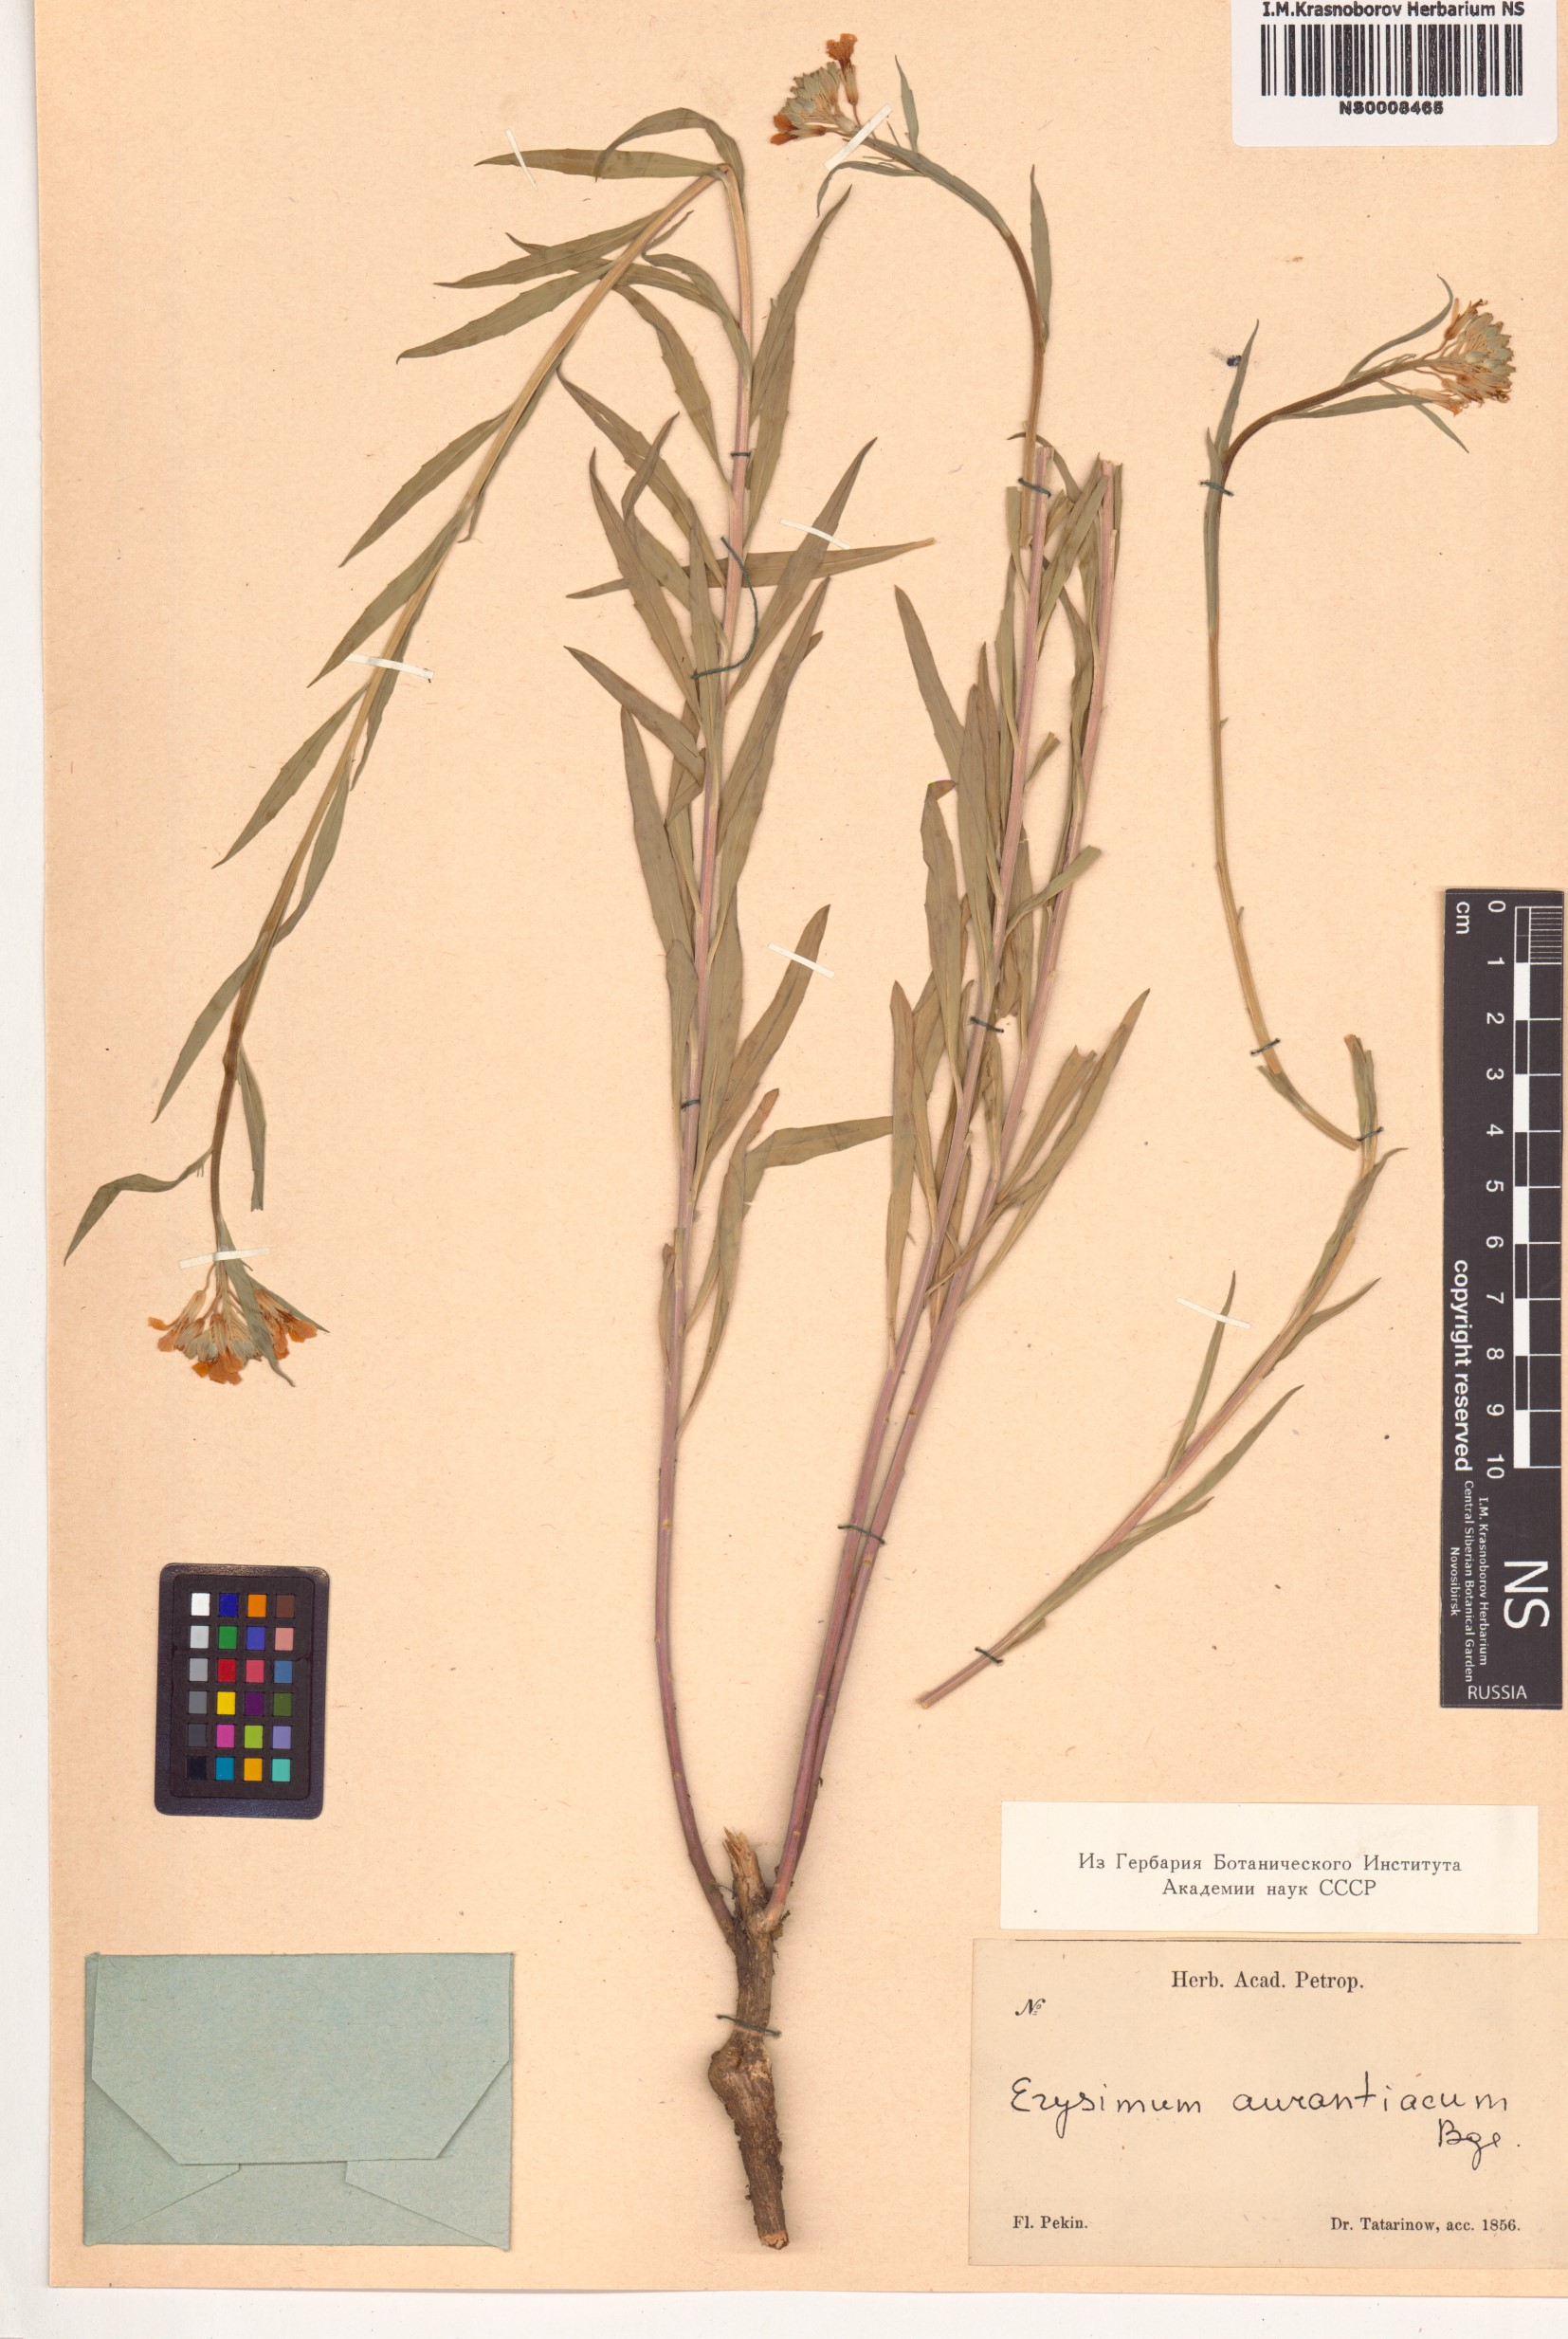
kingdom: Plantae
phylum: Tracheophyta
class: Magnoliopsida
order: Brassicales
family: Brassicaceae
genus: Erysimum
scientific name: Erysimum amurense
